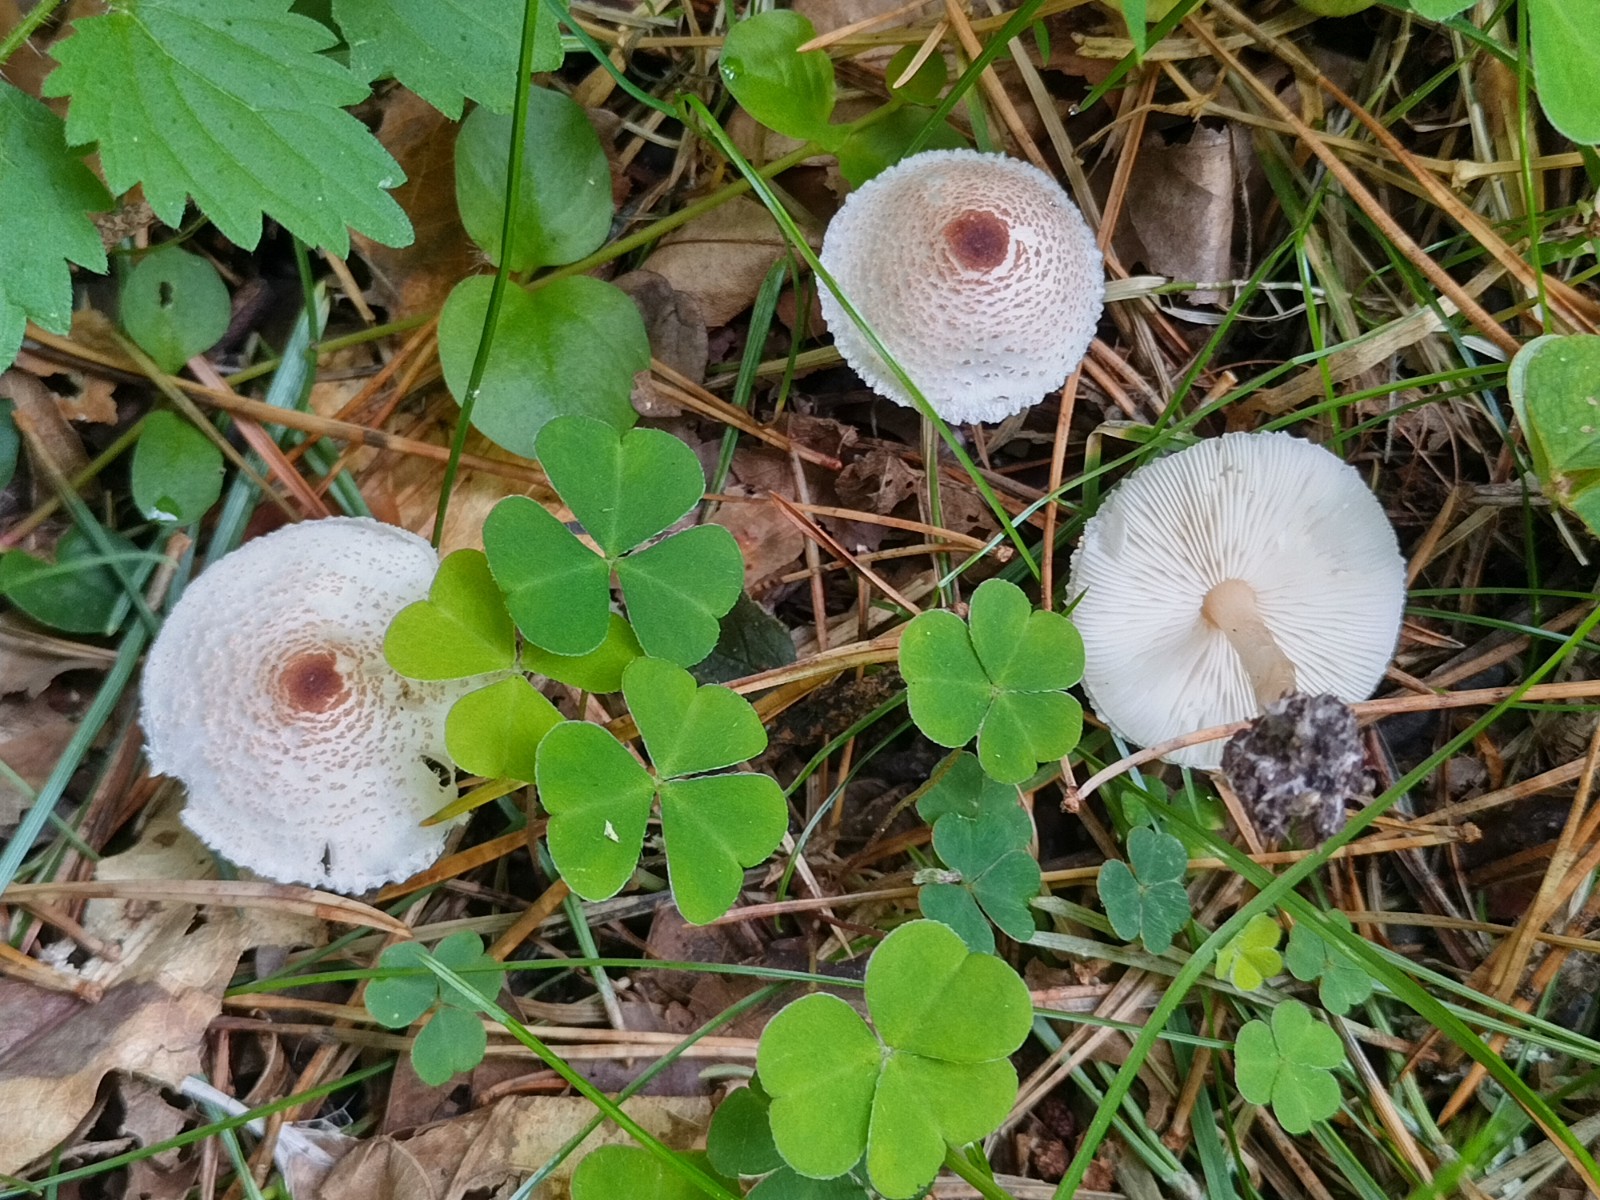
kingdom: Fungi
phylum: Basidiomycota
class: Agaricomycetes
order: Agaricales
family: Agaricaceae
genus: Lepiota
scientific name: Lepiota cristata
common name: stinkende parasolhat
